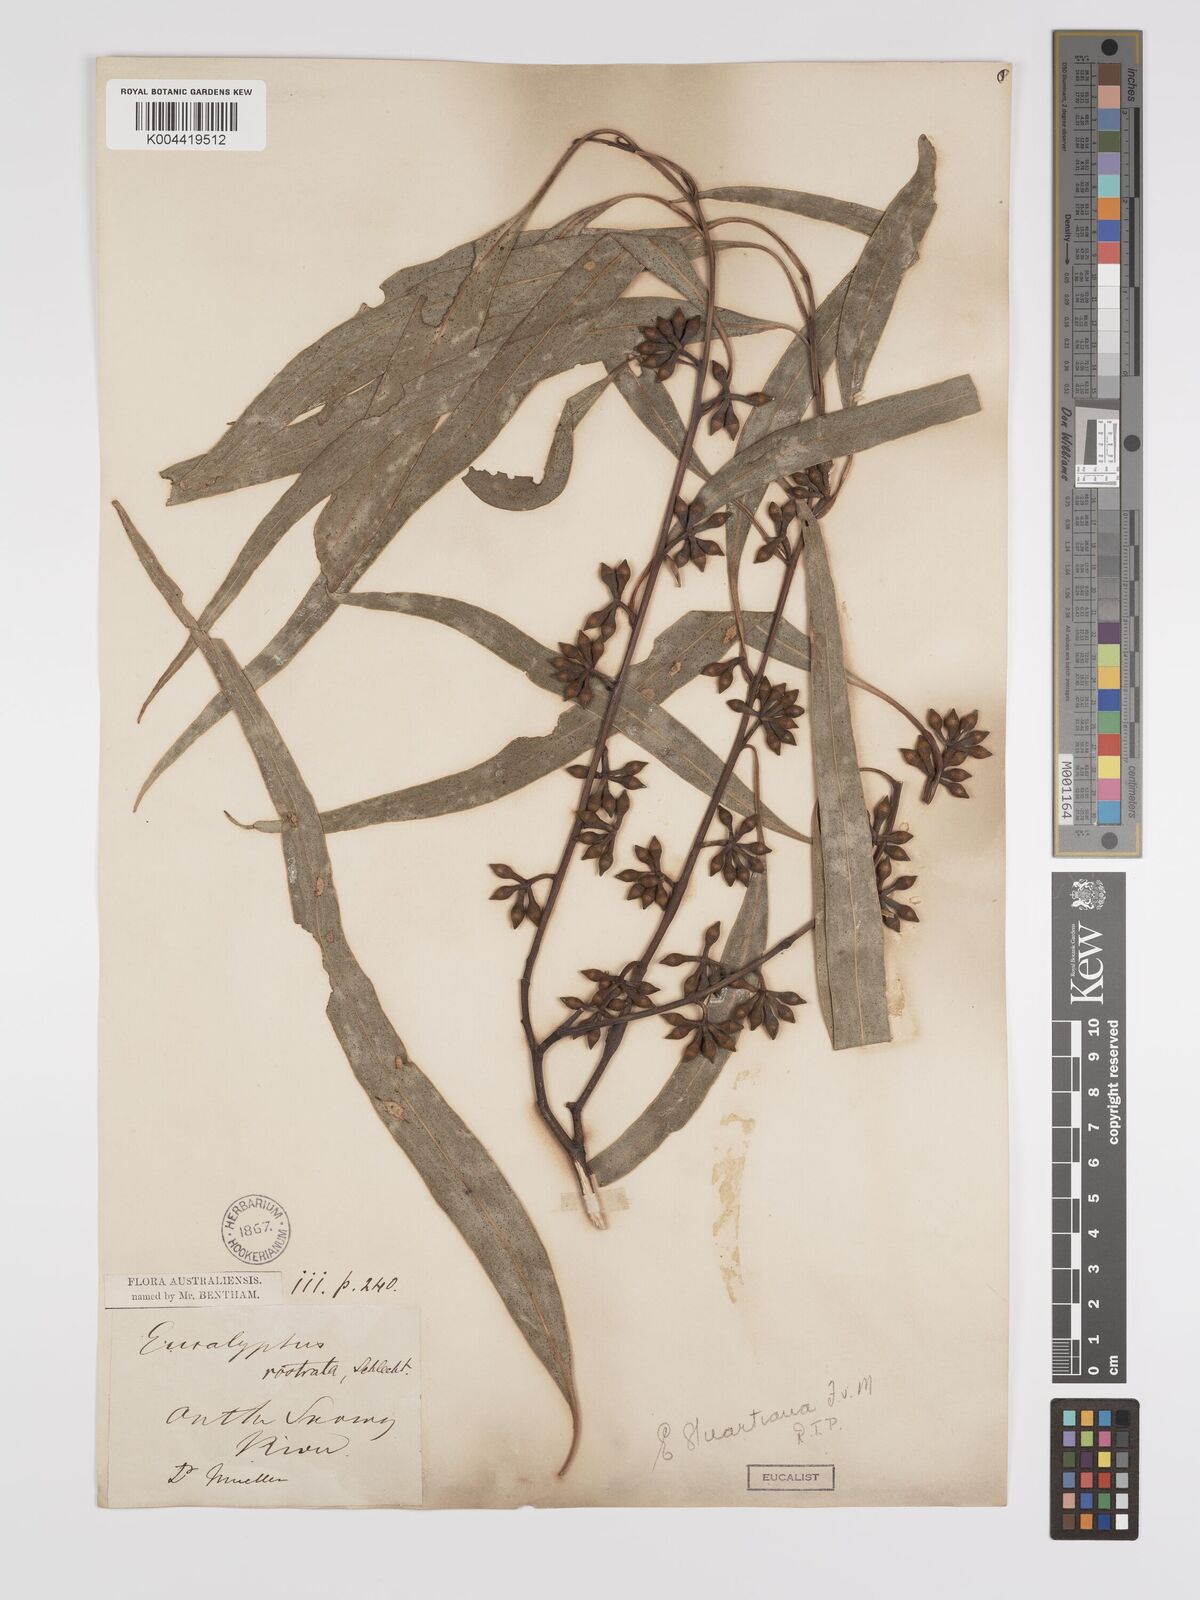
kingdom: Plantae
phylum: Tracheophyta
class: Magnoliopsida
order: Myrtales
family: Myrtaceae
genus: Eucalyptus
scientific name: Eucalyptus ovata
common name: Black-gum
